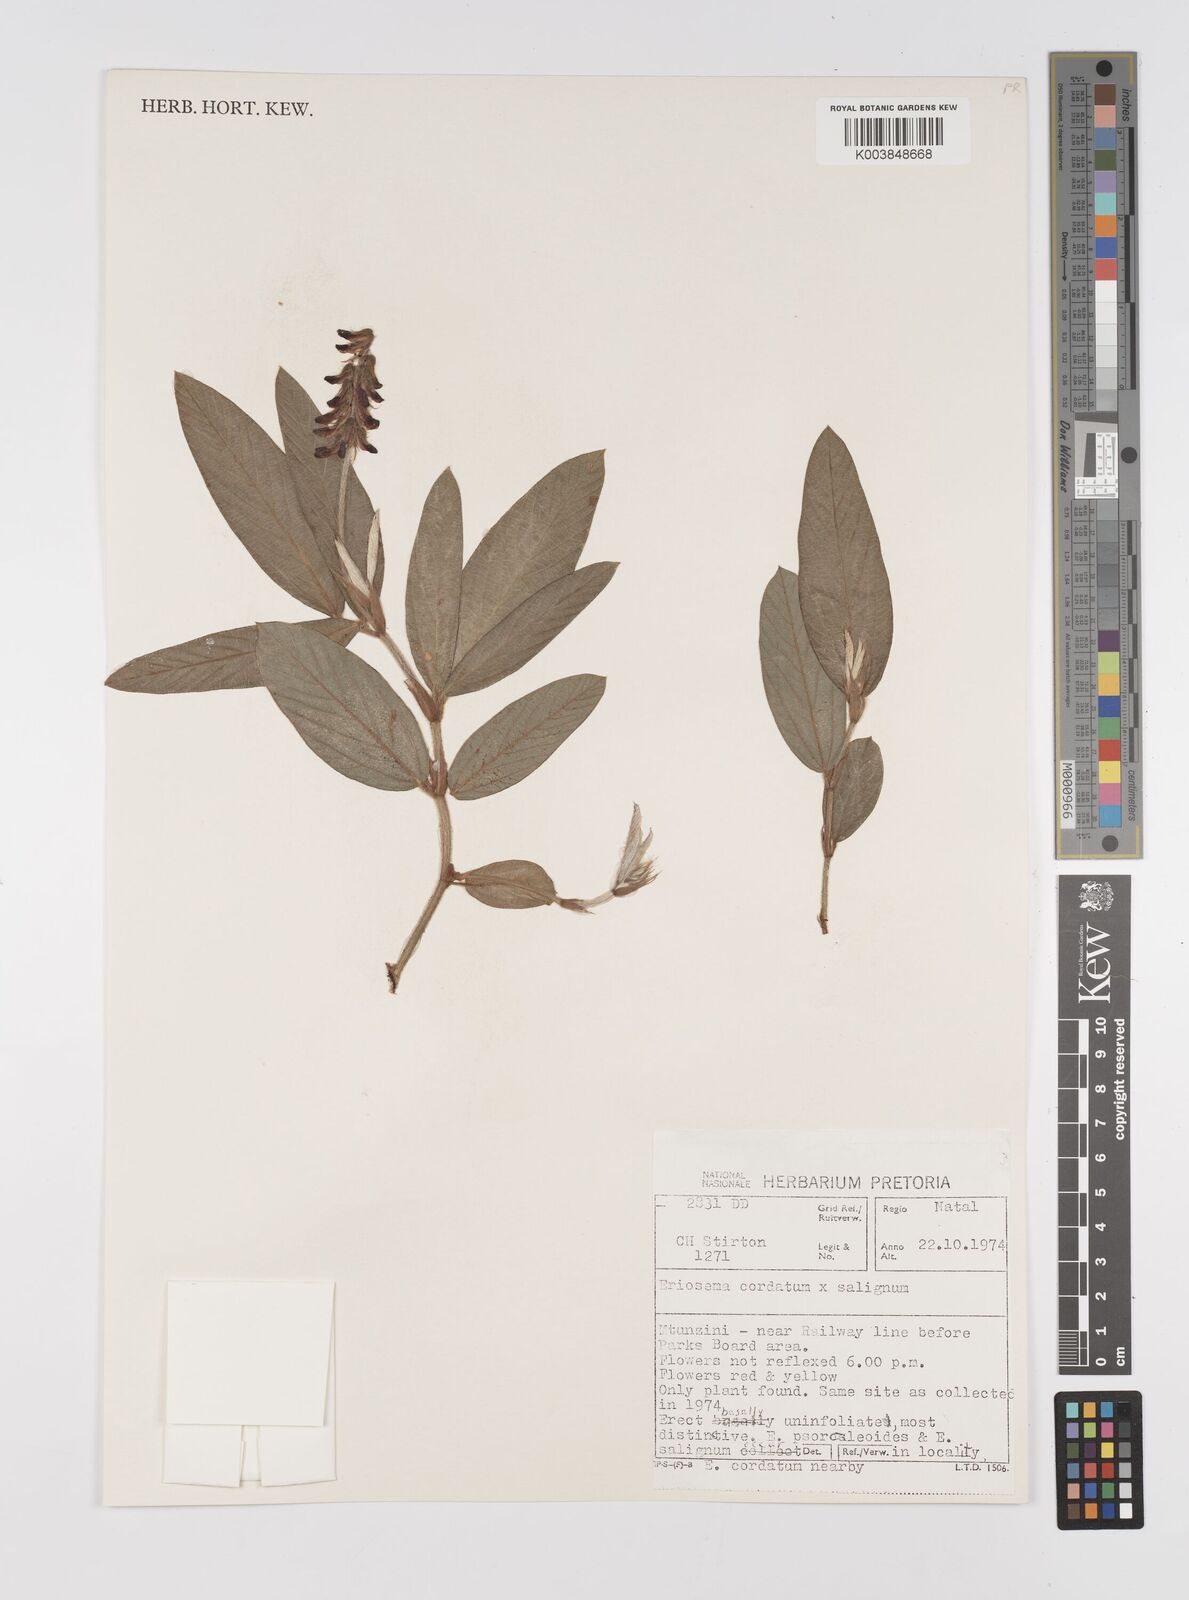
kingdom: Plantae
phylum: Tracheophyta
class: Magnoliopsida
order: Fabales
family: Fabaceae
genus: Eriosema
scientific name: Eriosema cordatum
